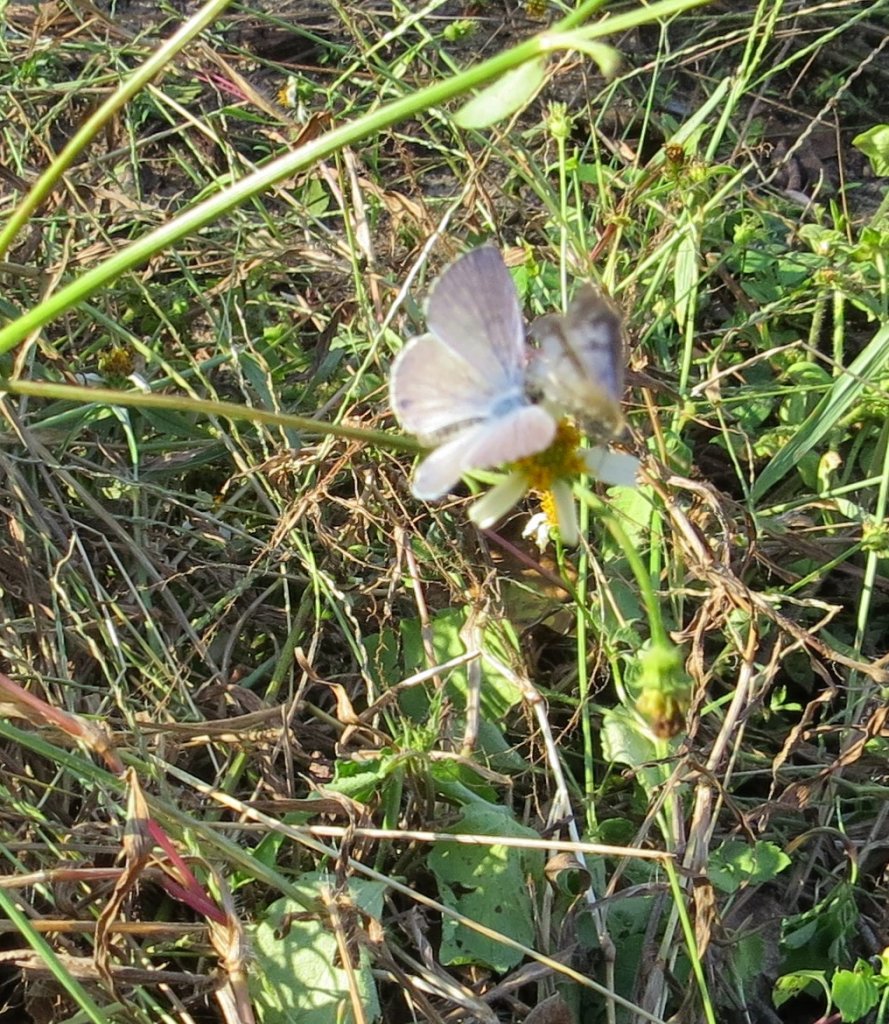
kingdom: Animalia
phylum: Arthropoda
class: Insecta
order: Lepidoptera
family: Lycaenidae
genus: Leptotes
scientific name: Leptotes cassius
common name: Cassius Blue
